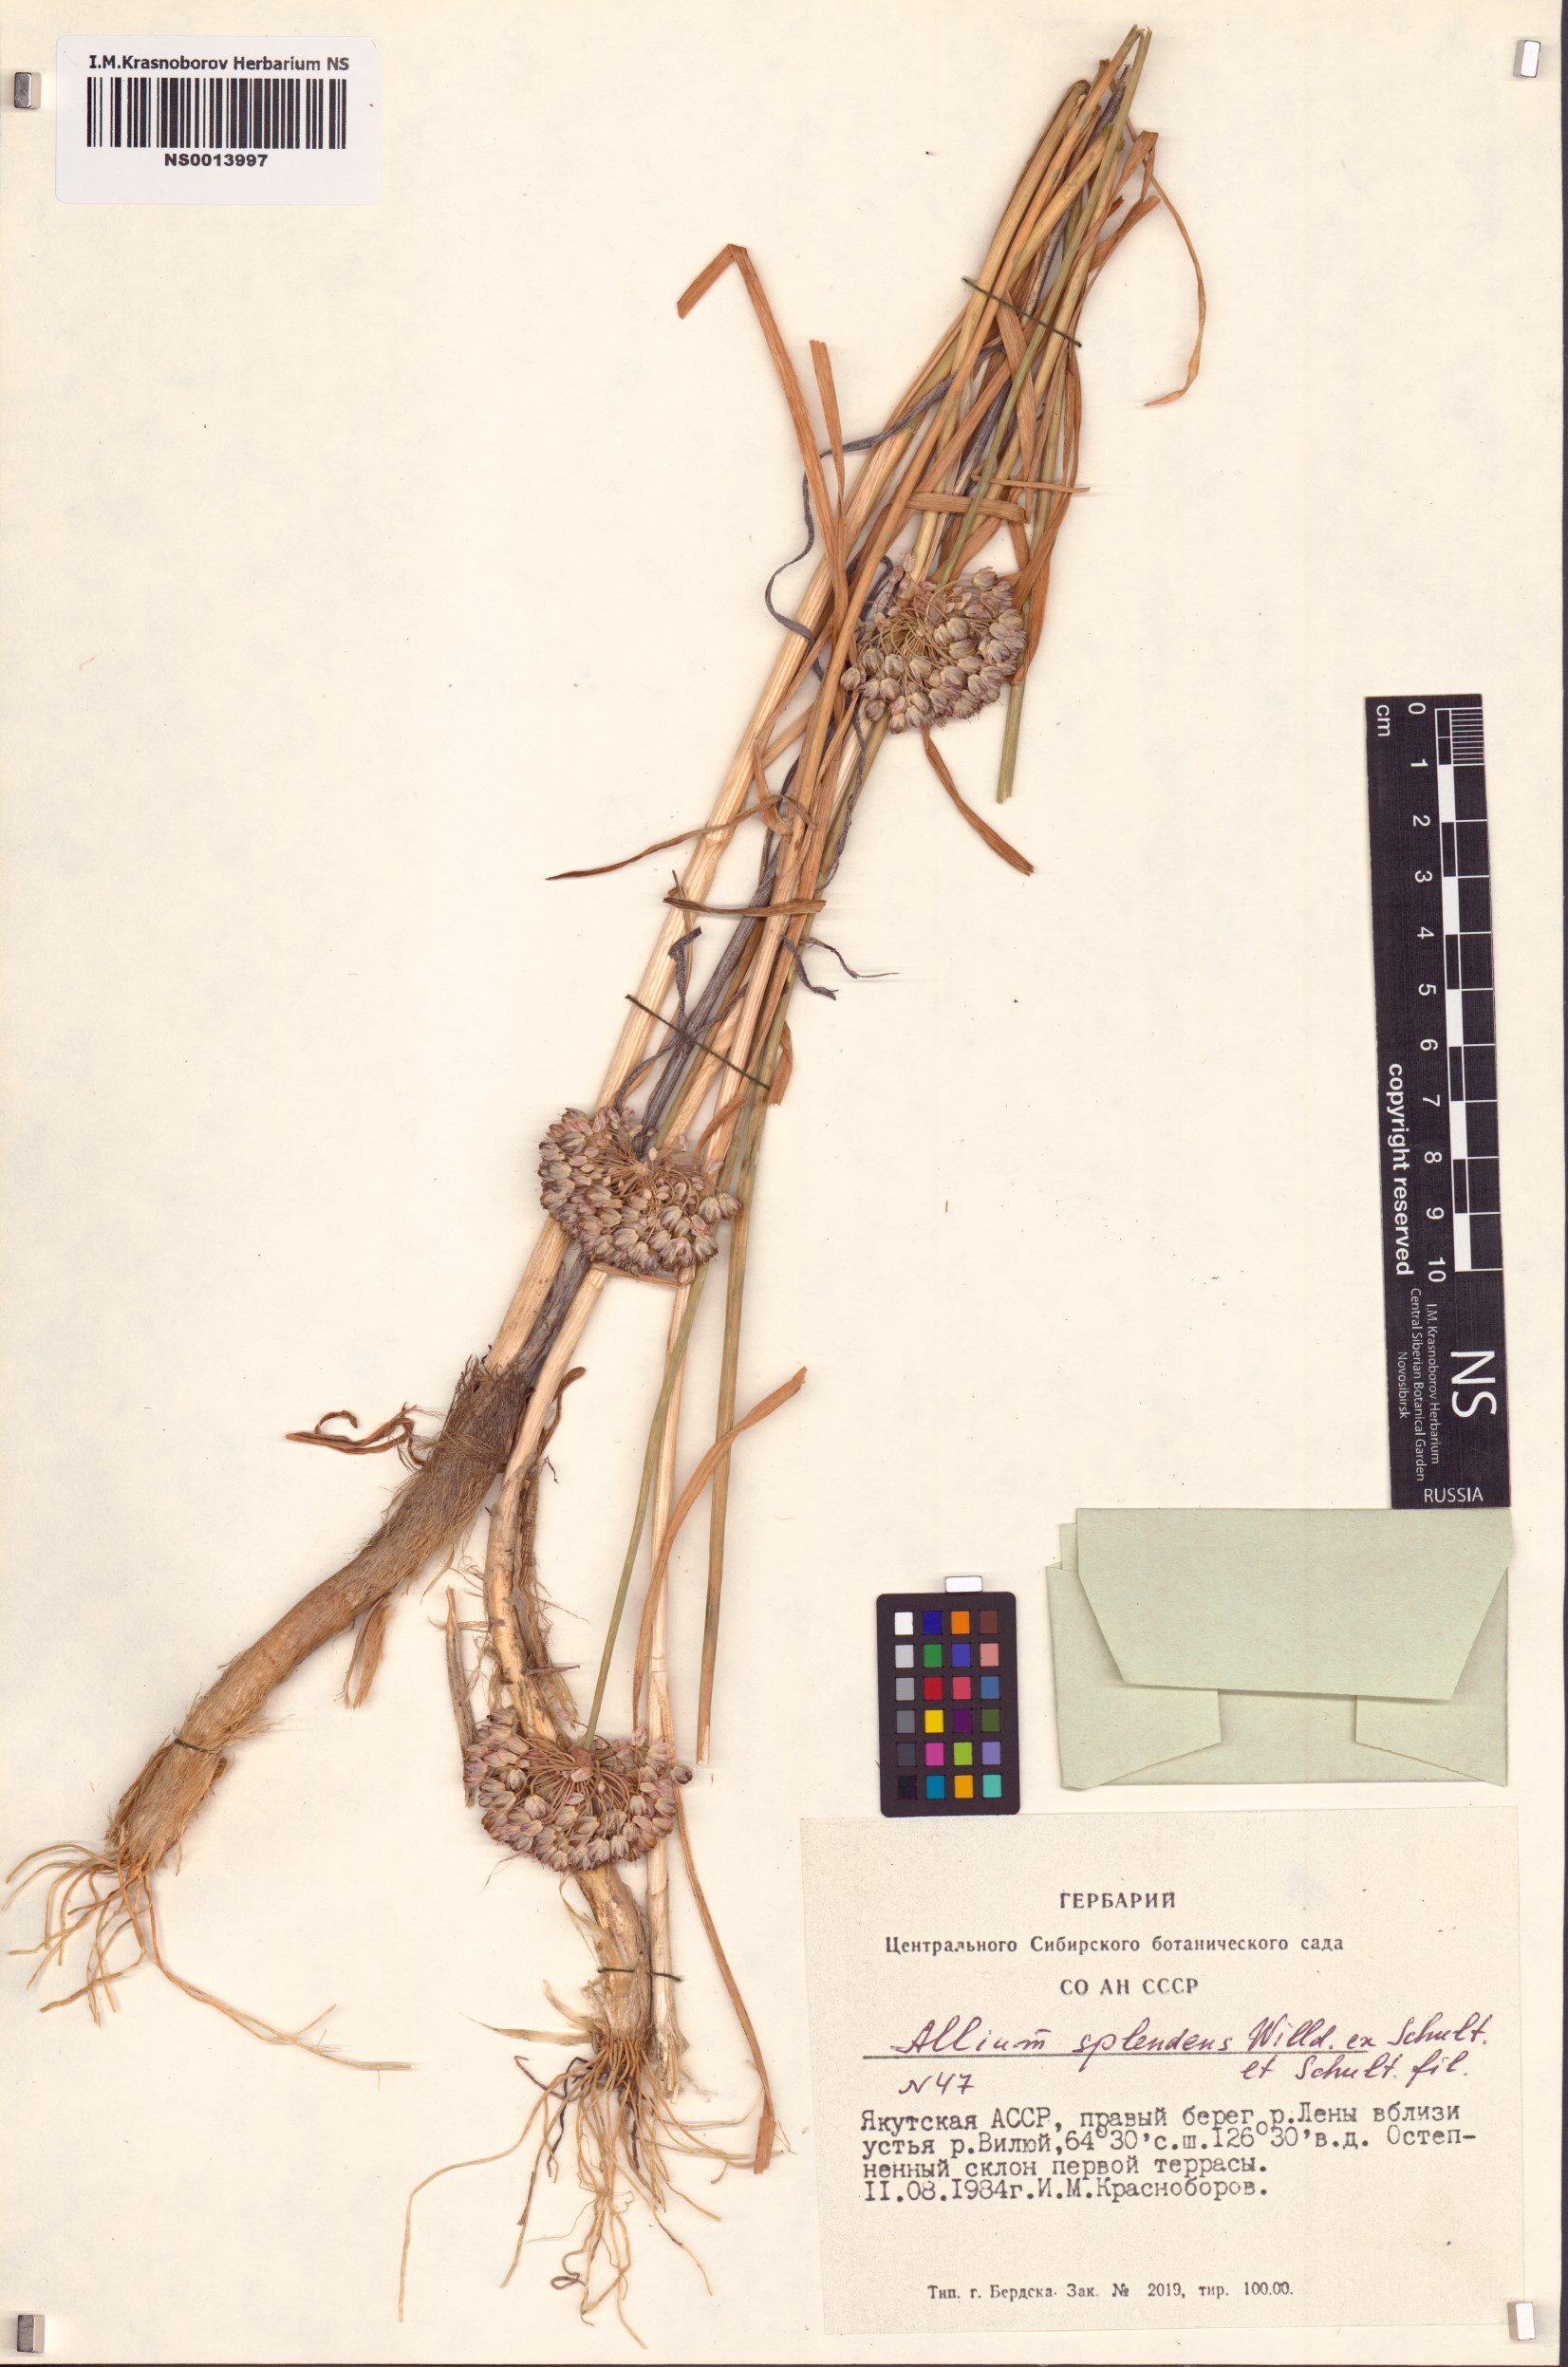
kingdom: Plantae
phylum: Tracheophyta
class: Liliopsida
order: Asparagales
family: Amaryllidaceae
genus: Allium
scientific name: Allium splendens
